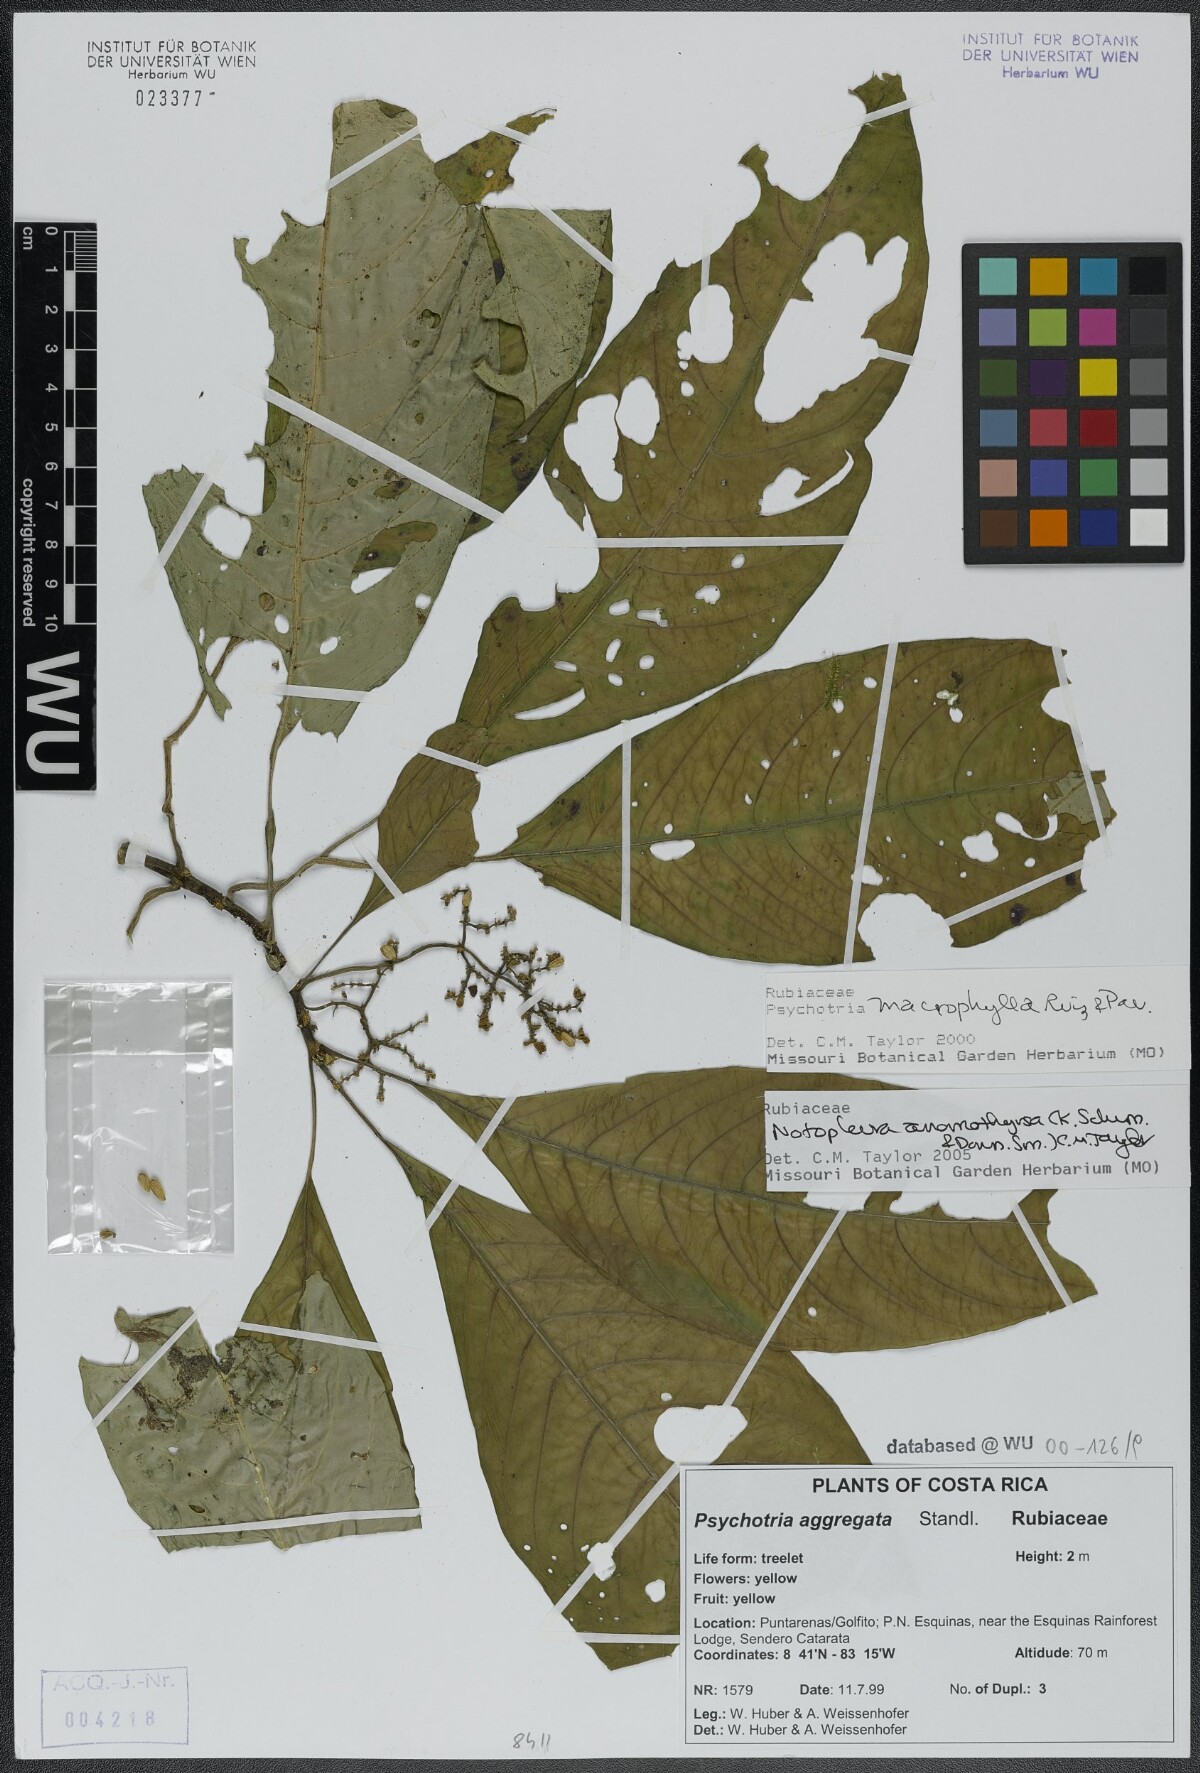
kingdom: Plantae
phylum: Tracheophyta
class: Magnoliopsida
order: Gentianales
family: Rubiaceae
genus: Notopleura
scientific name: Notopleura anomothyrsa
